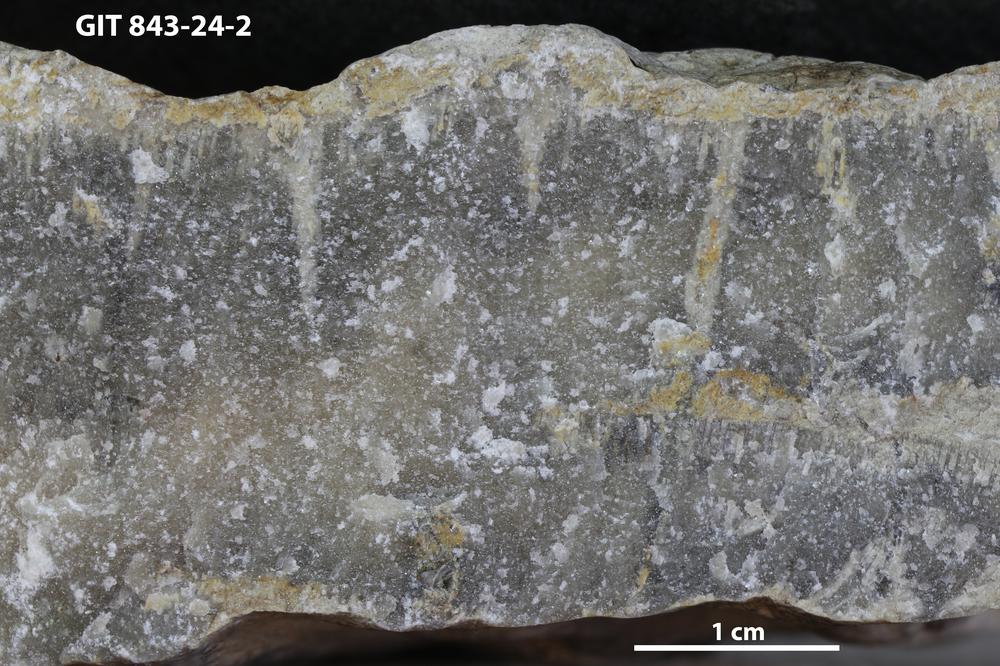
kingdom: Animalia
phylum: Sipuncula
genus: Trypanites
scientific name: Trypanites
